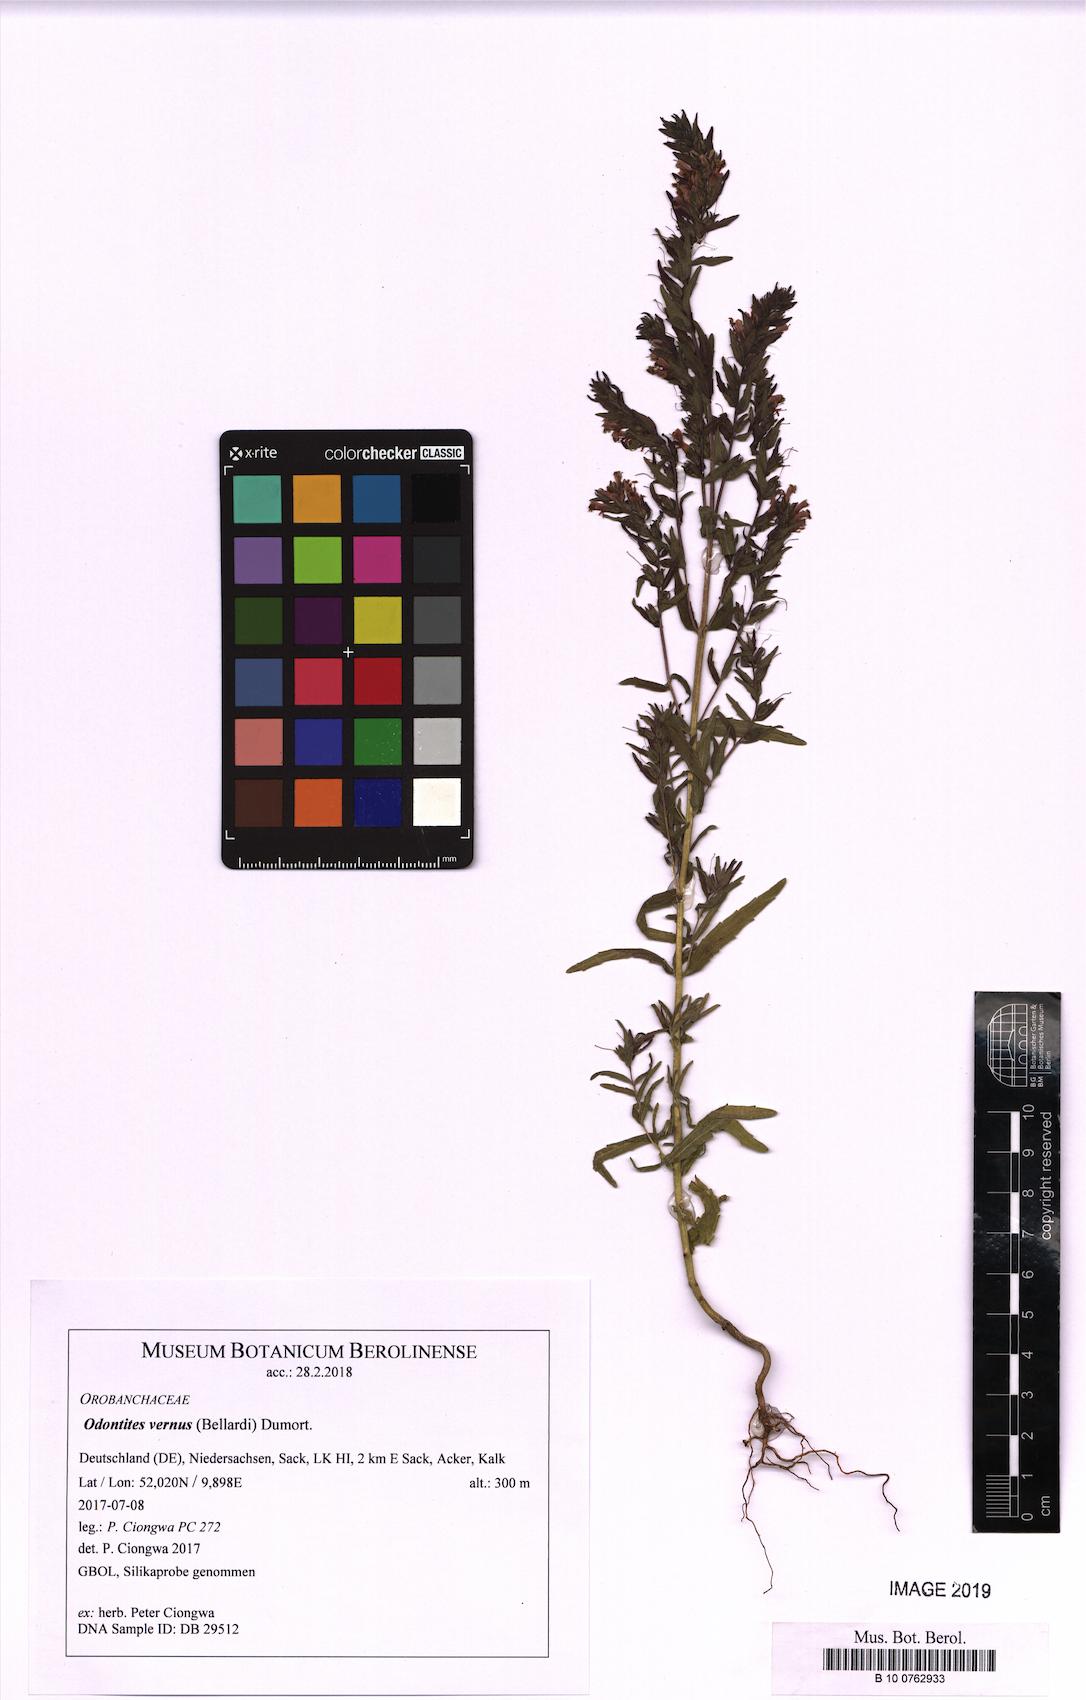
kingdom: Plantae
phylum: Tracheophyta
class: Magnoliopsida
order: Lamiales
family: Orobanchaceae
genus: Odontites
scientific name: Odontites vernus
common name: Red bartsia
